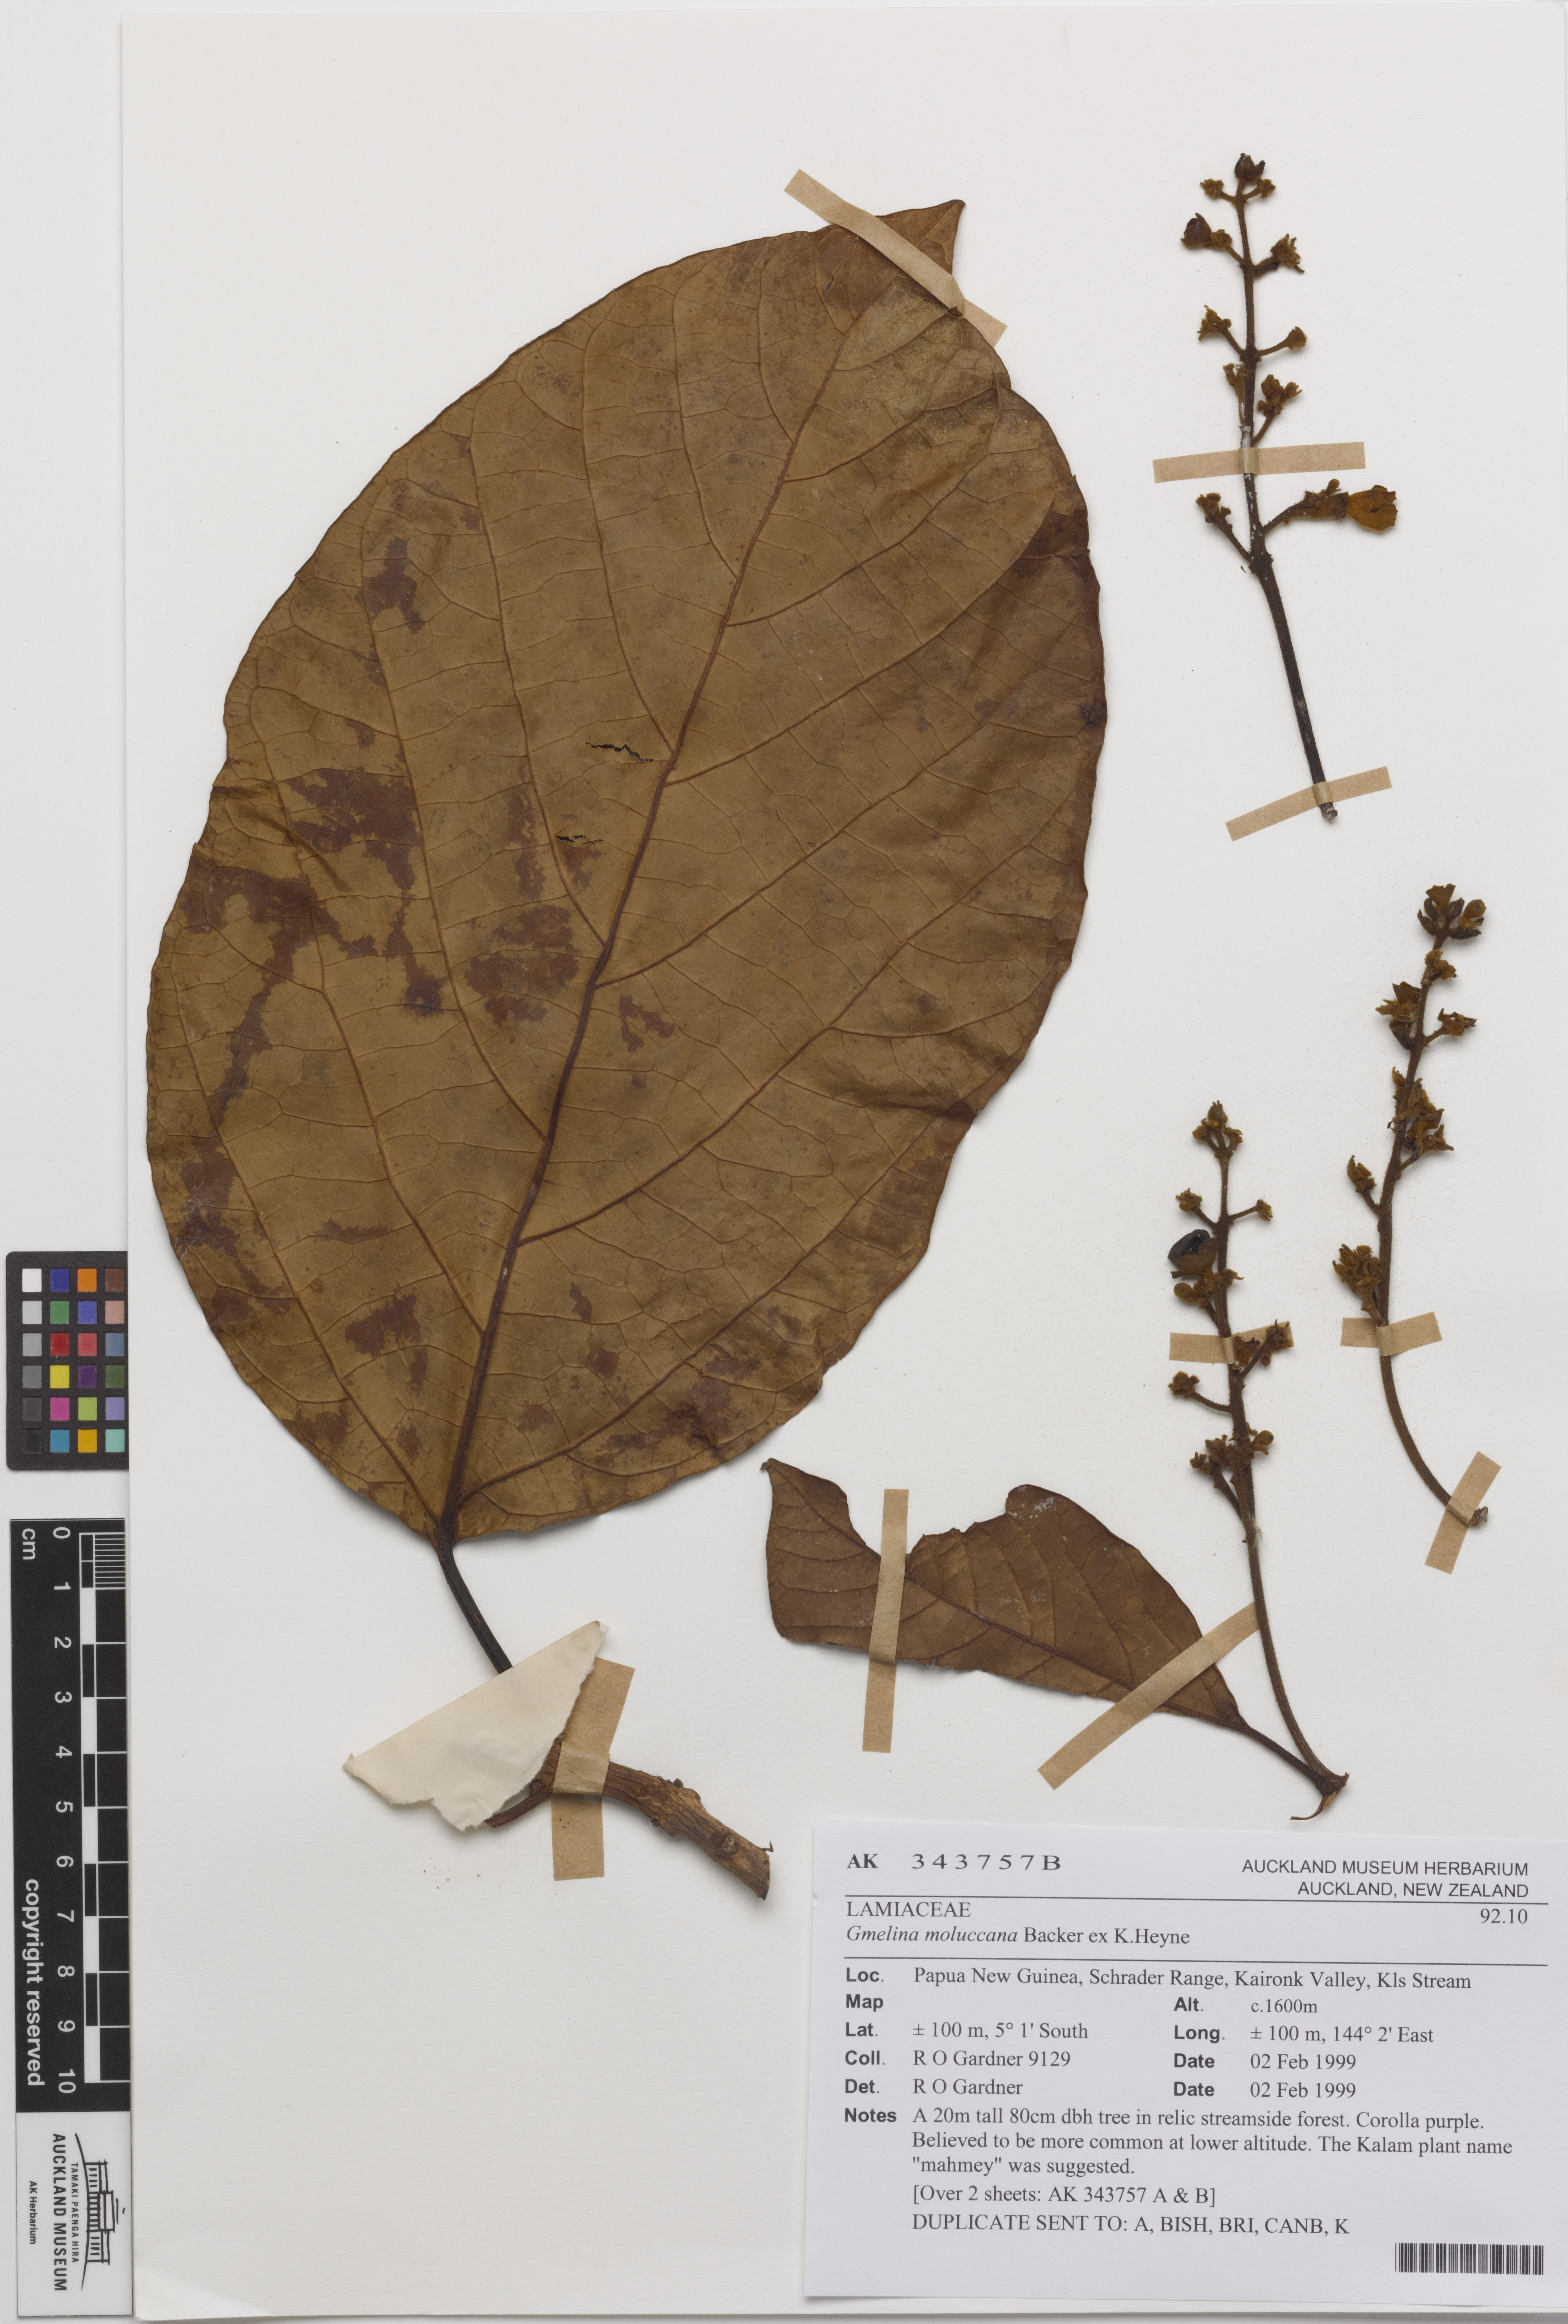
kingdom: Plantae
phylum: Tracheophyta
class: Magnoliopsida
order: Lamiales
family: Lamiaceae
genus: Gmelina
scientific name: Gmelina moluccana
